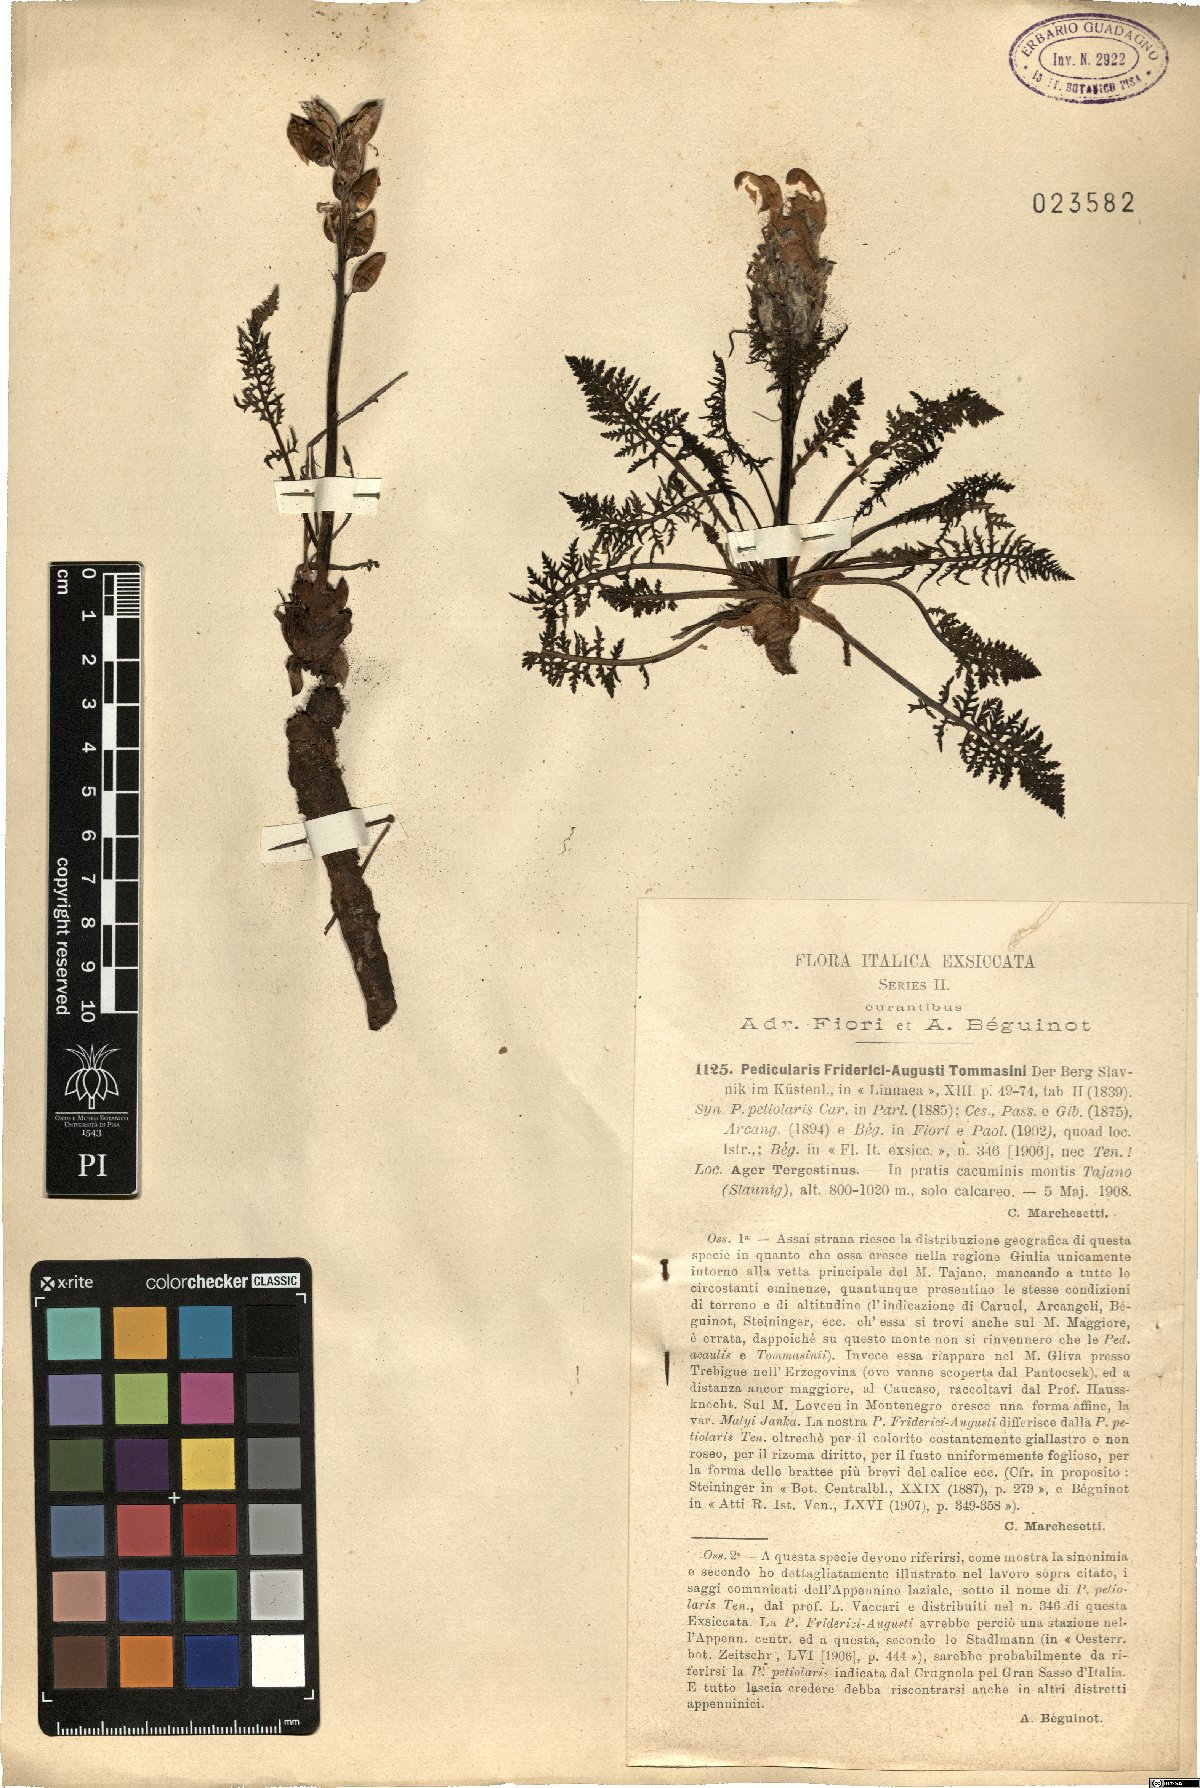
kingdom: Plantae
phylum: Tracheophyta
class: Magnoliopsida
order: Lamiales
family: Orobanchaceae
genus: Pedicularis
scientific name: Pedicularis friderici-augusti
